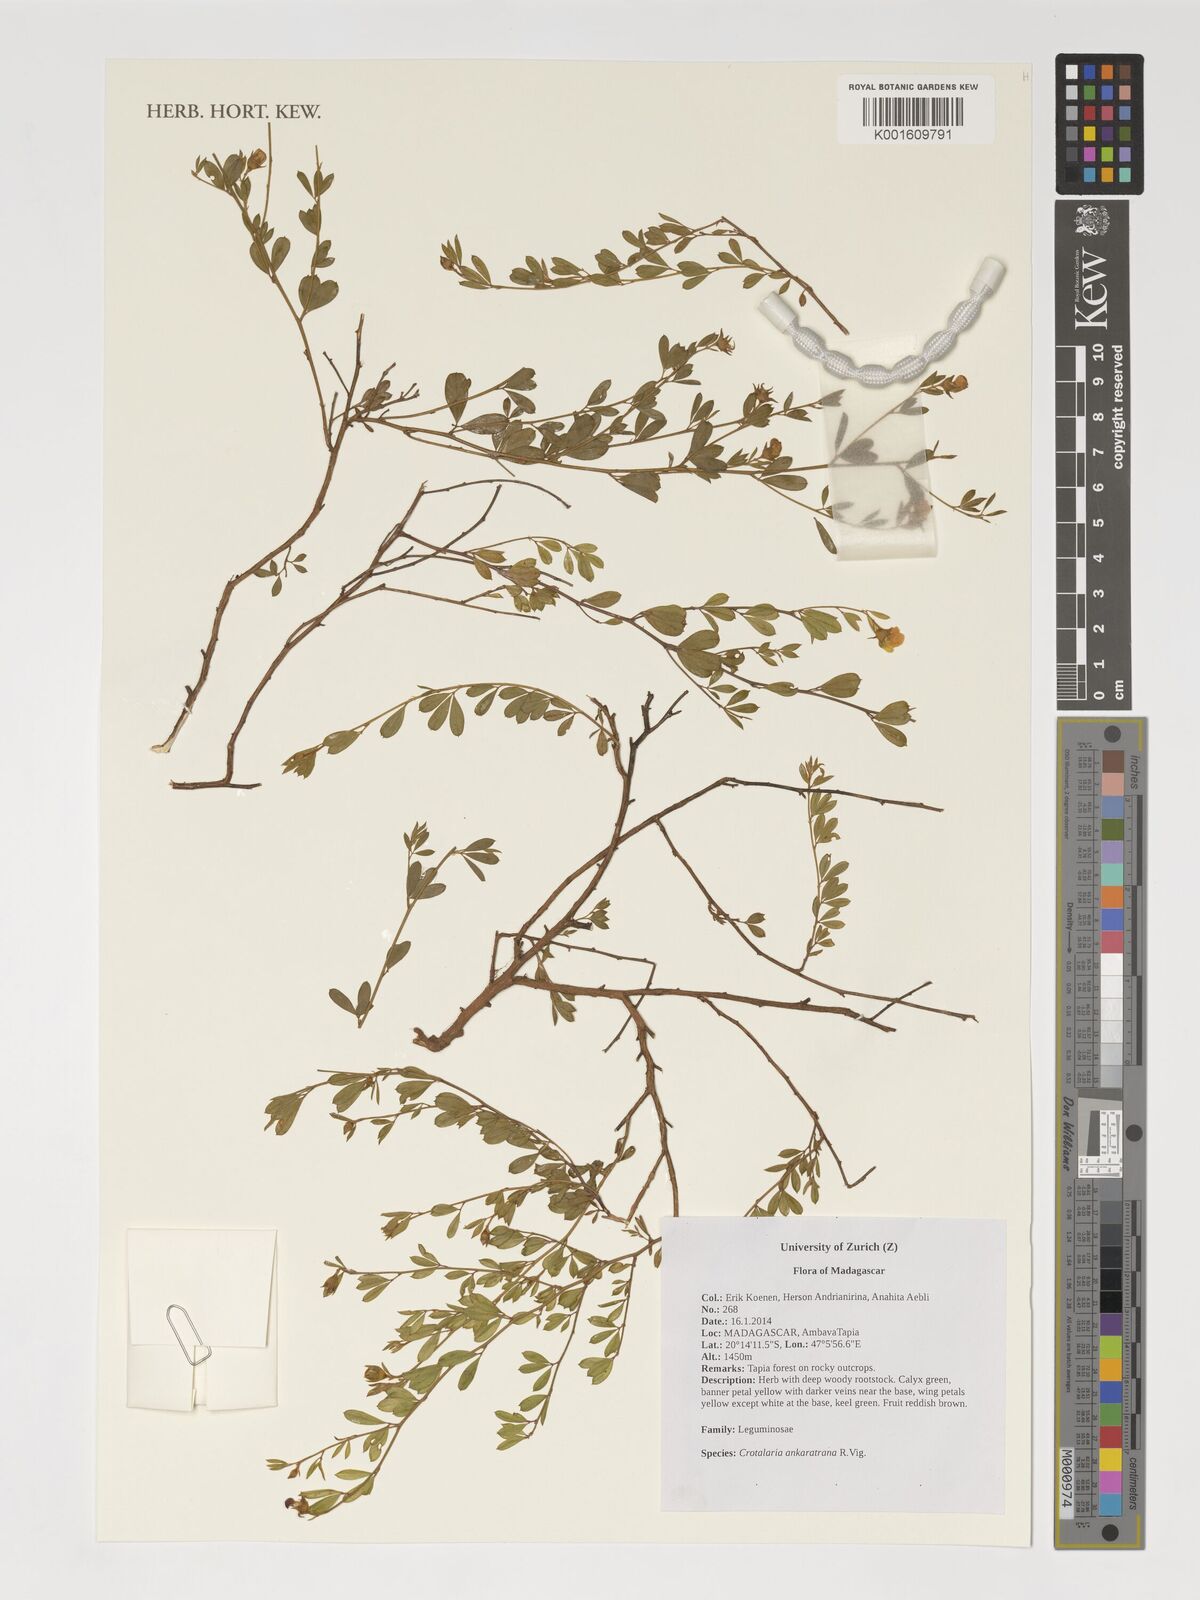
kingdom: Plantae
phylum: Tracheophyta
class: Magnoliopsida
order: Fabales
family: Fabaceae
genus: Crotalaria
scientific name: Crotalaria ankaratrana
